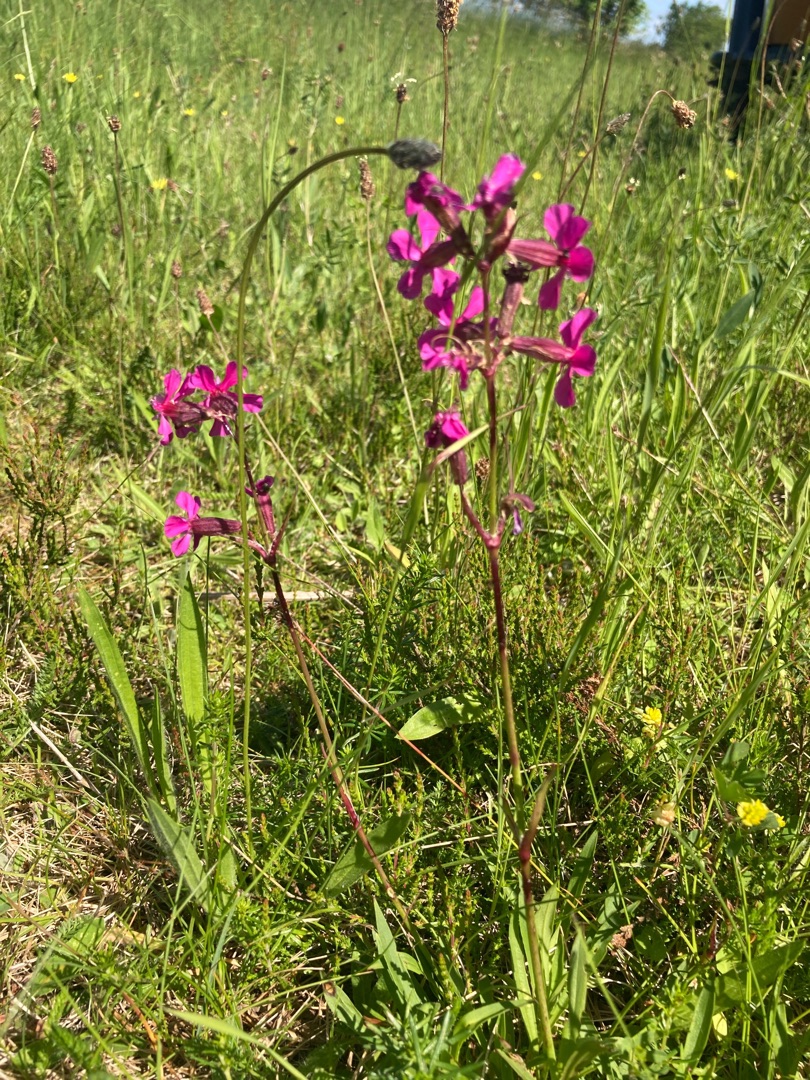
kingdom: Plantae
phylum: Tracheophyta
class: Magnoliopsida
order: Caryophyllales
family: Caryophyllaceae
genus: Viscaria
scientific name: Viscaria vulgaris
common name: Tjærenellike
